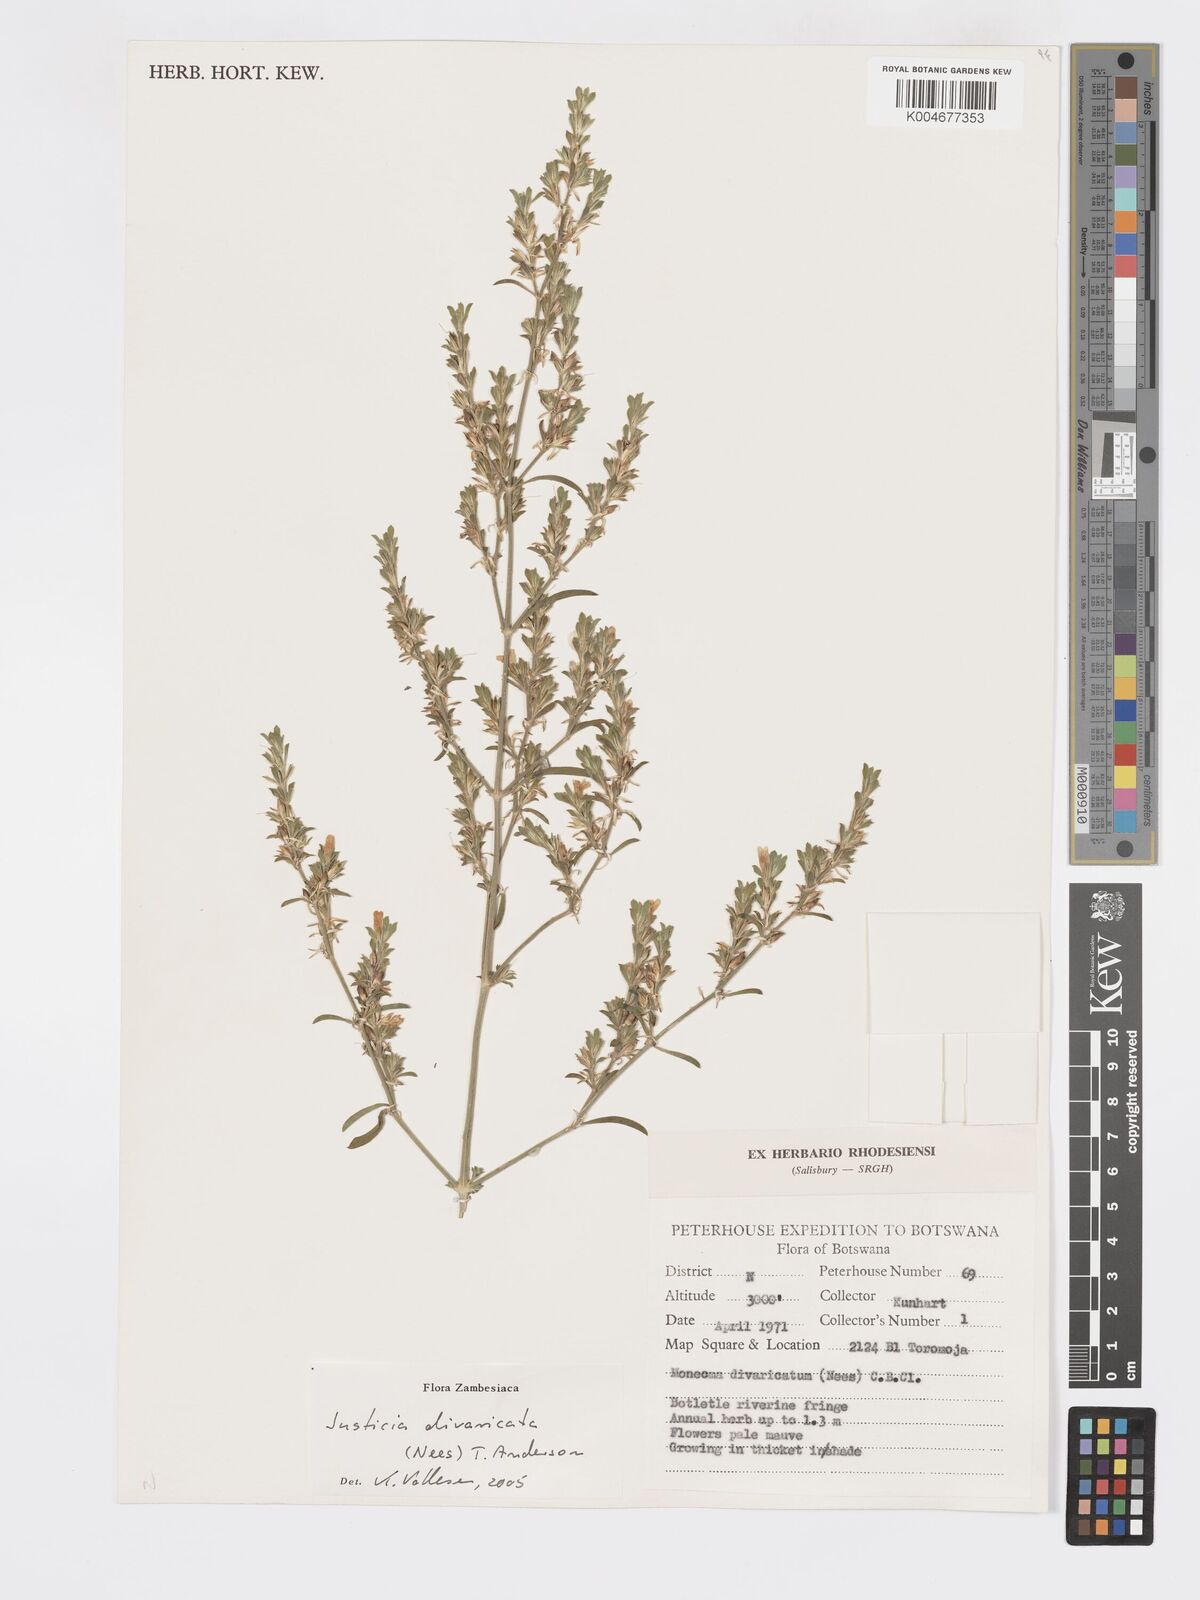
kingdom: Plantae
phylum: Tracheophyta
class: Magnoliopsida
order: Lamiales
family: Acanthaceae
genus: Pogonospermum
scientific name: Pogonospermum
